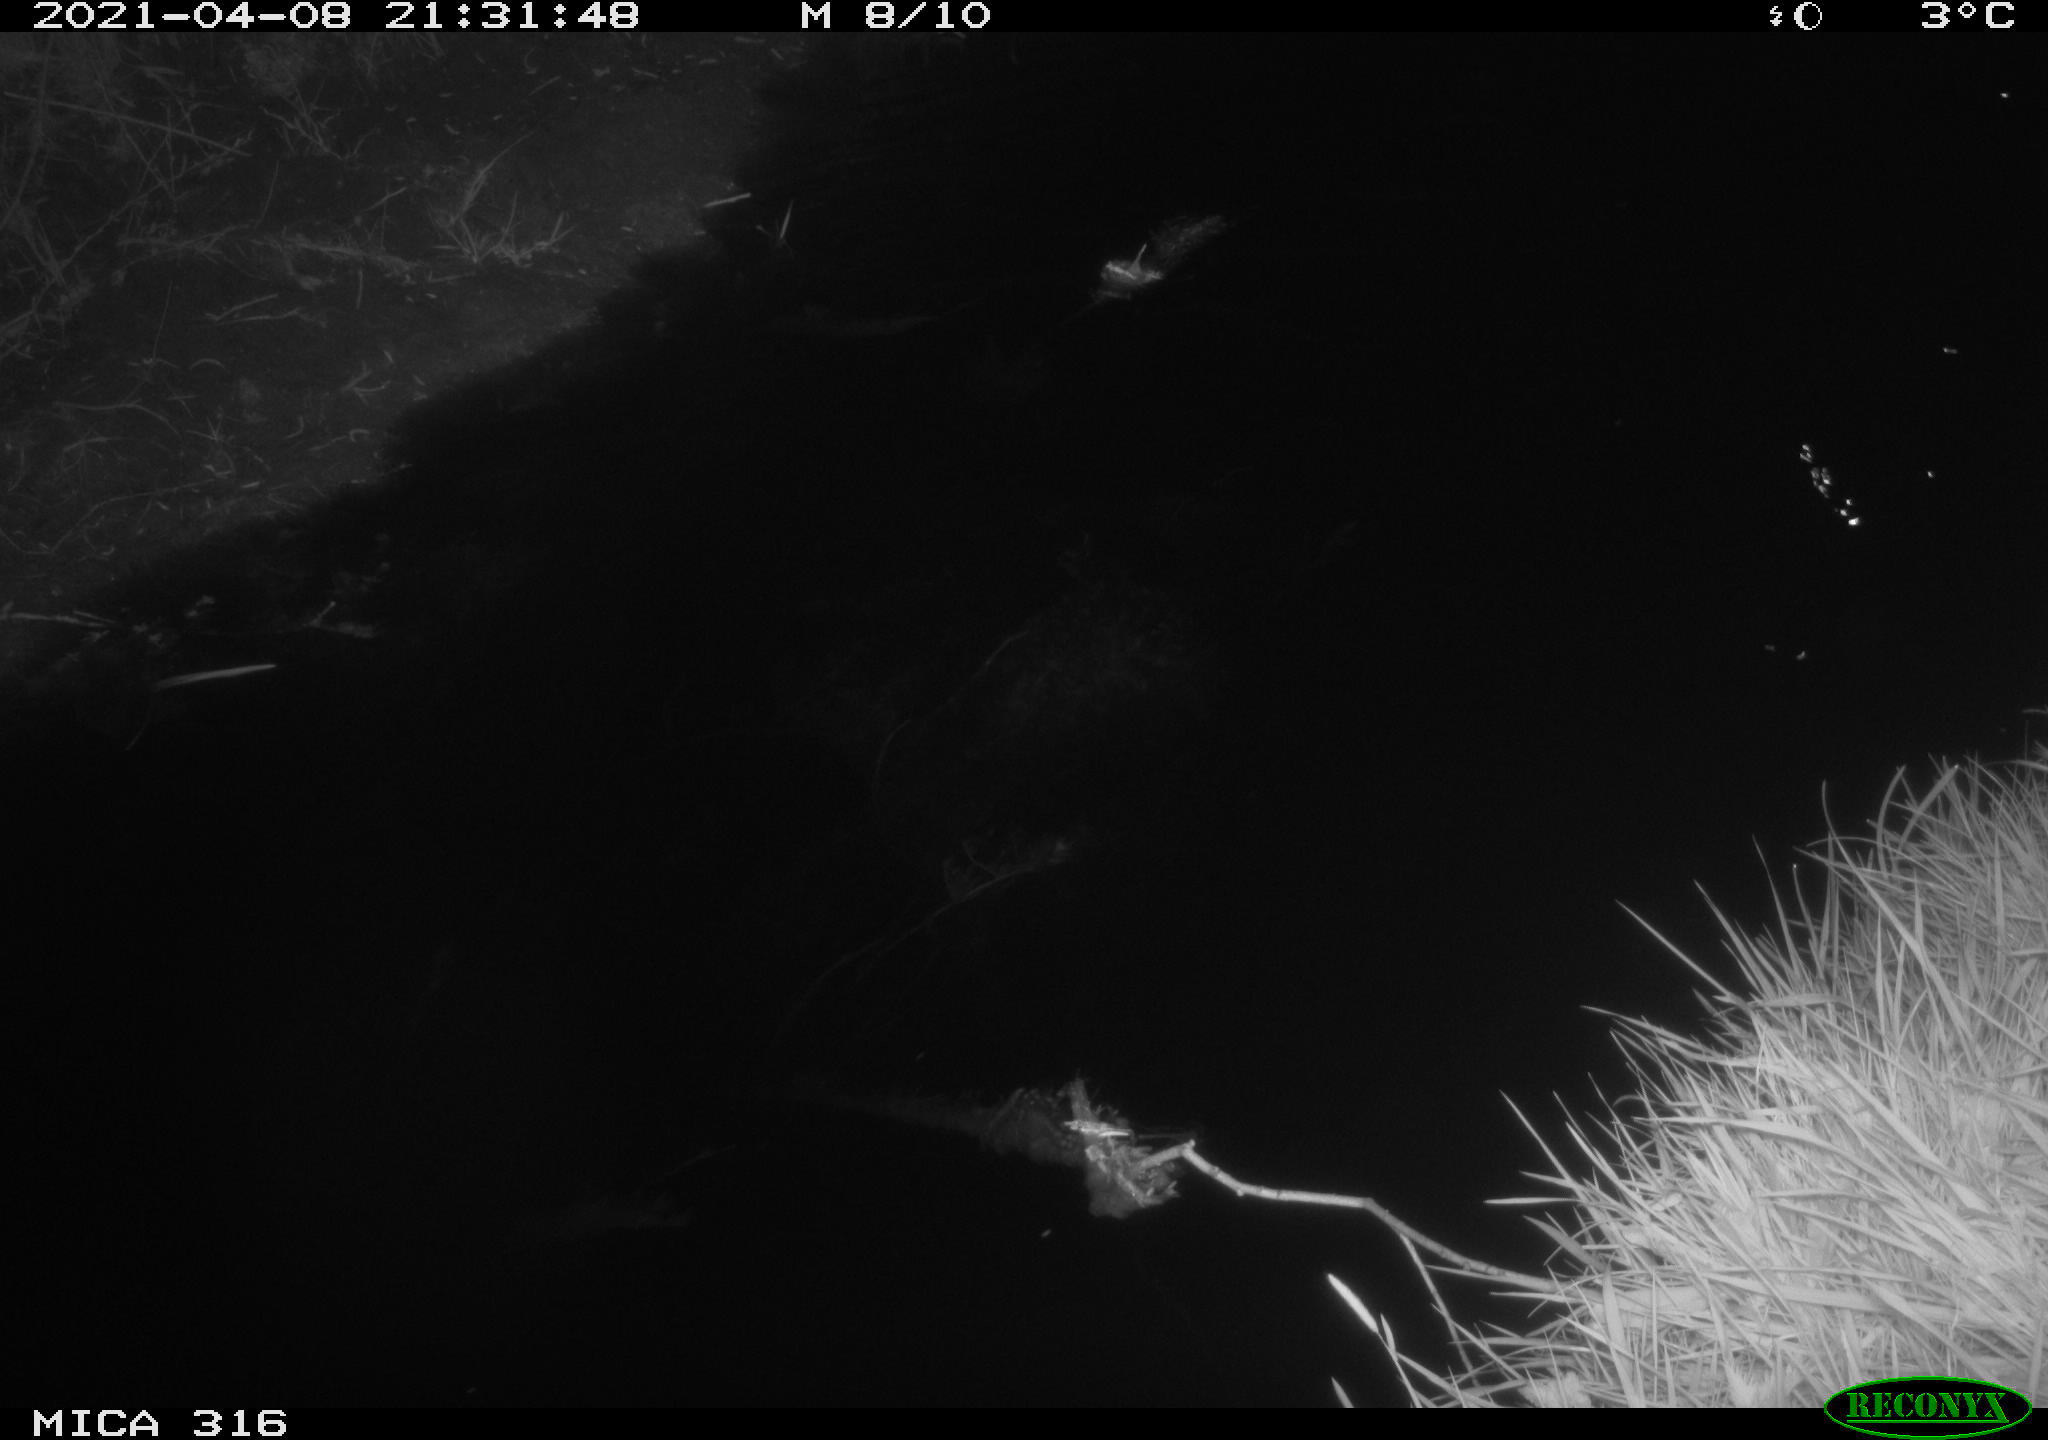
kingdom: Animalia
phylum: Chordata
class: Aves
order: Anseriformes
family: Anatidae
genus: Anas
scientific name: Anas platyrhynchos
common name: Mallard
